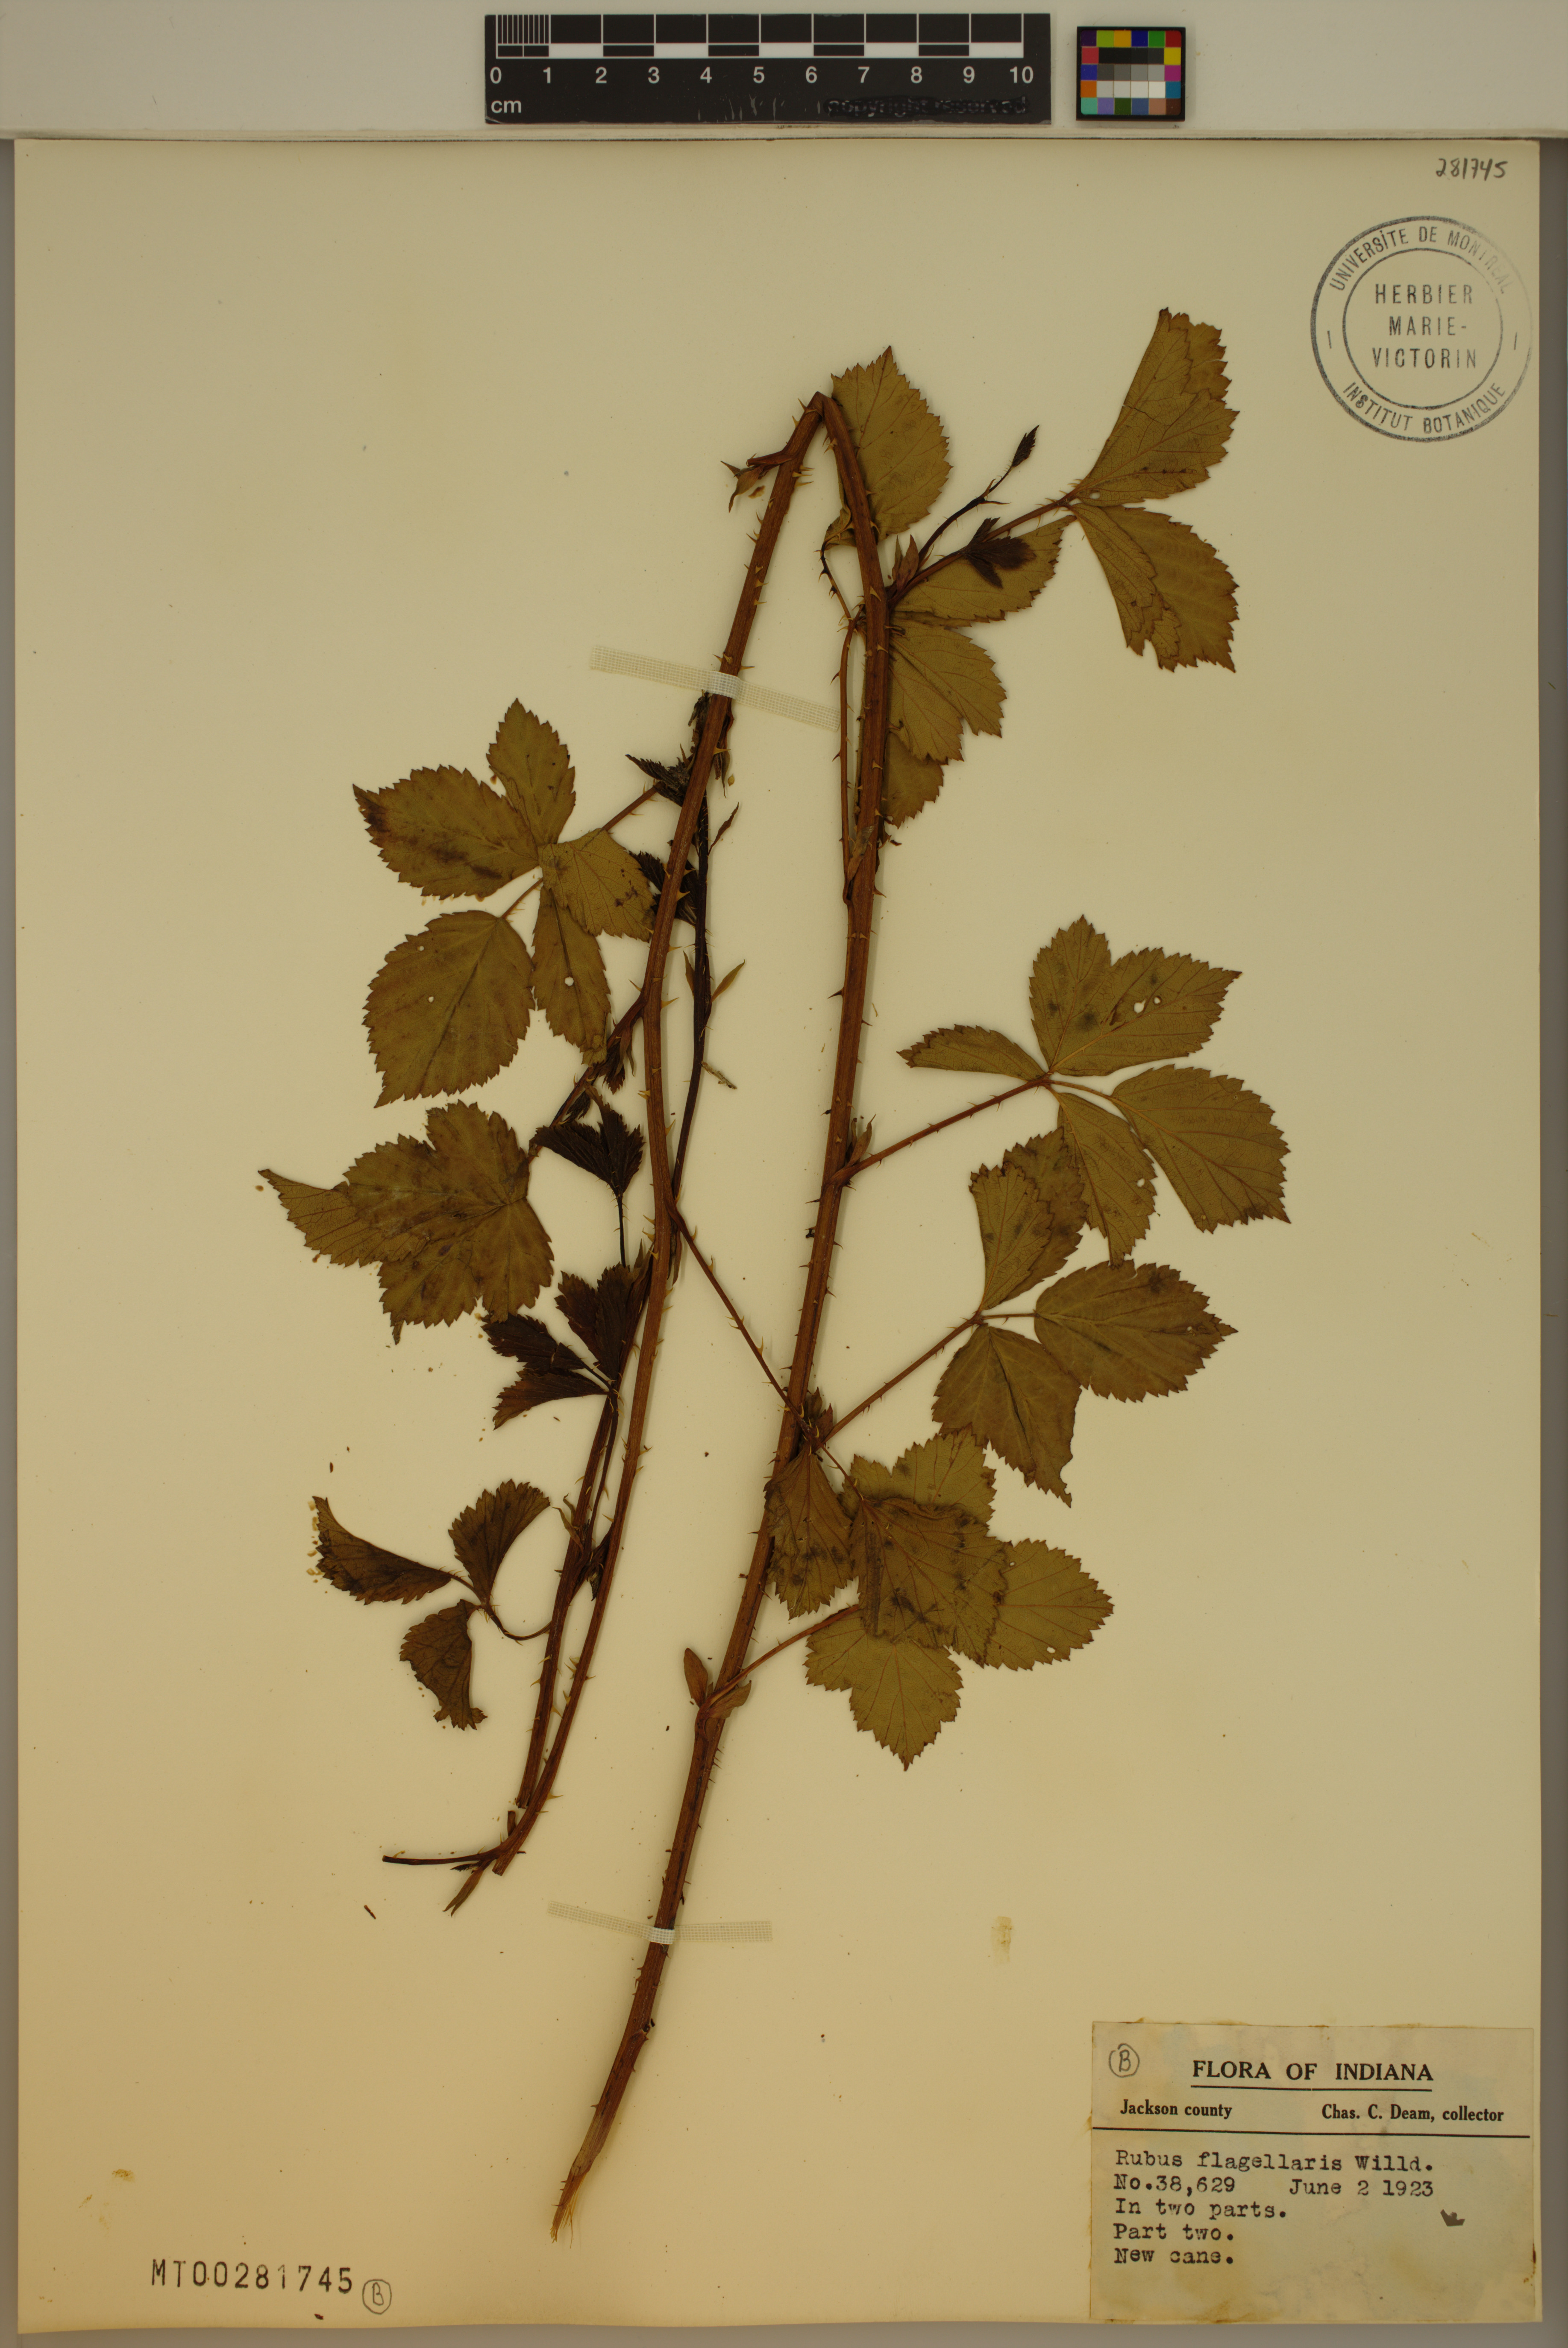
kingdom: Plantae
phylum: Tracheophyta
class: Magnoliopsida
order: Rosales
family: Rosaceae
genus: Rubus
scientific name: Rubus heterophyllus
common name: Ecotone blackberry
